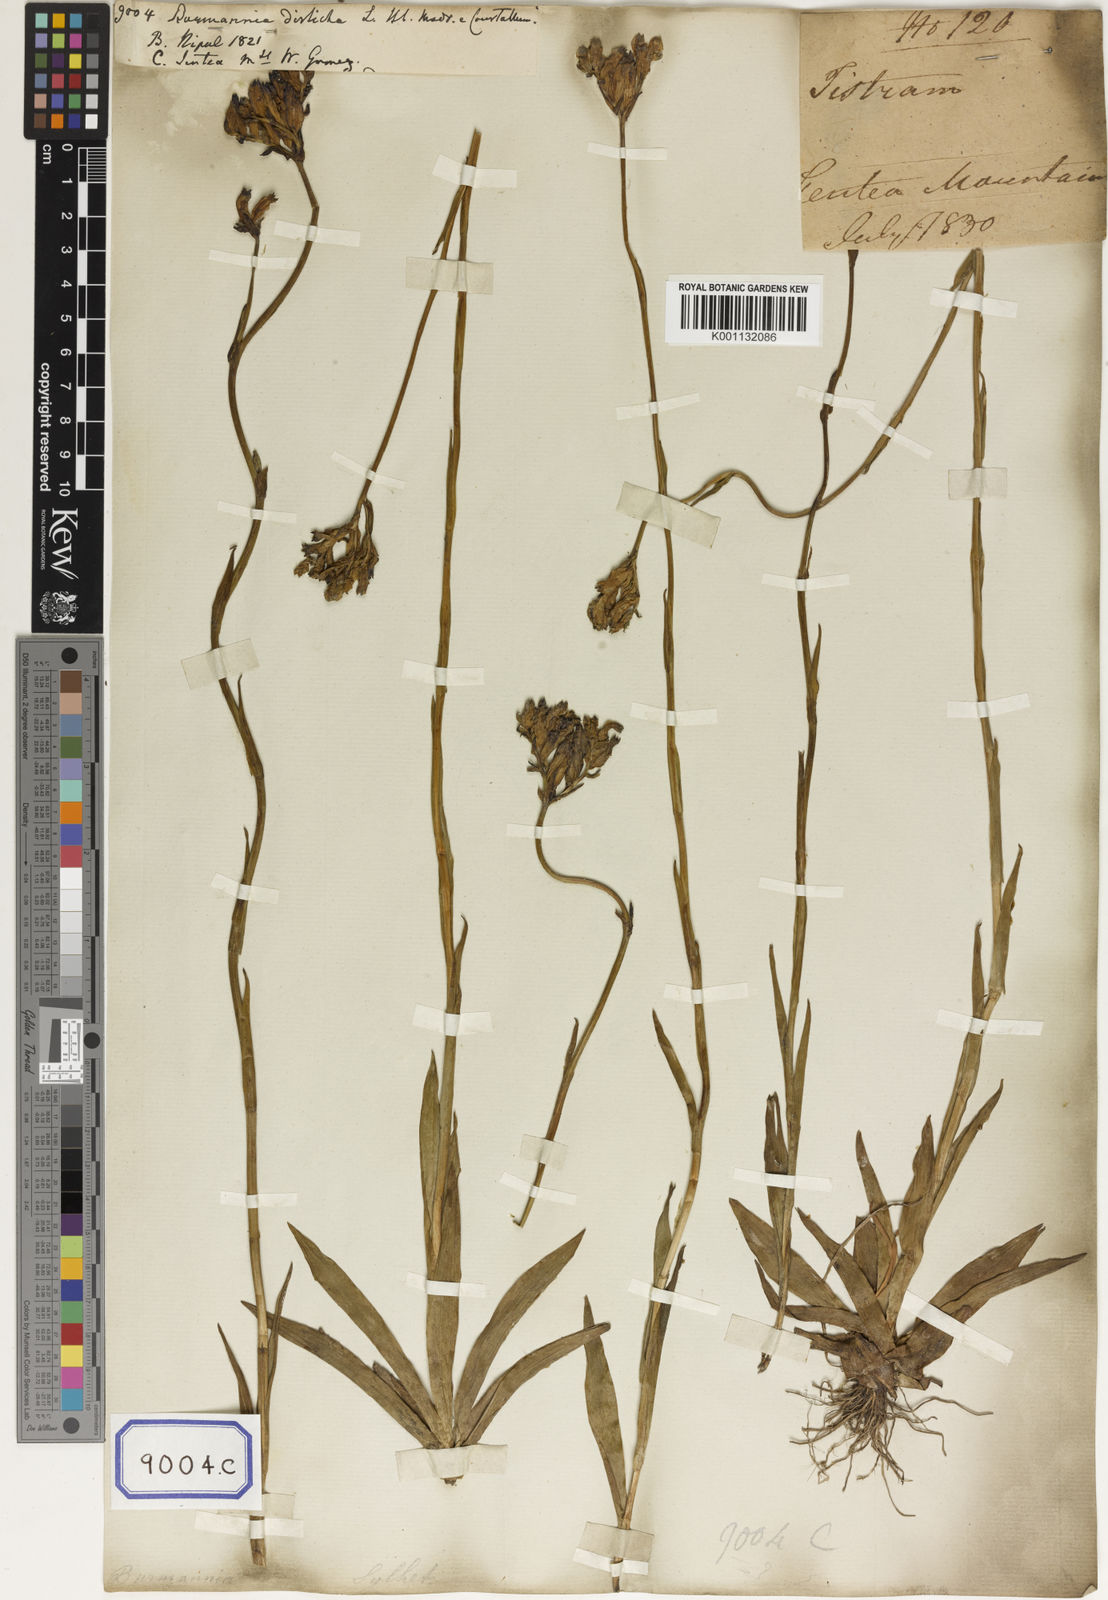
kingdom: Plantae
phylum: Tracheophyta
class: Liliopsida
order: Dioscoreales
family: Burmanniaceae
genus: Burmannia
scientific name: Burmannia disticha
